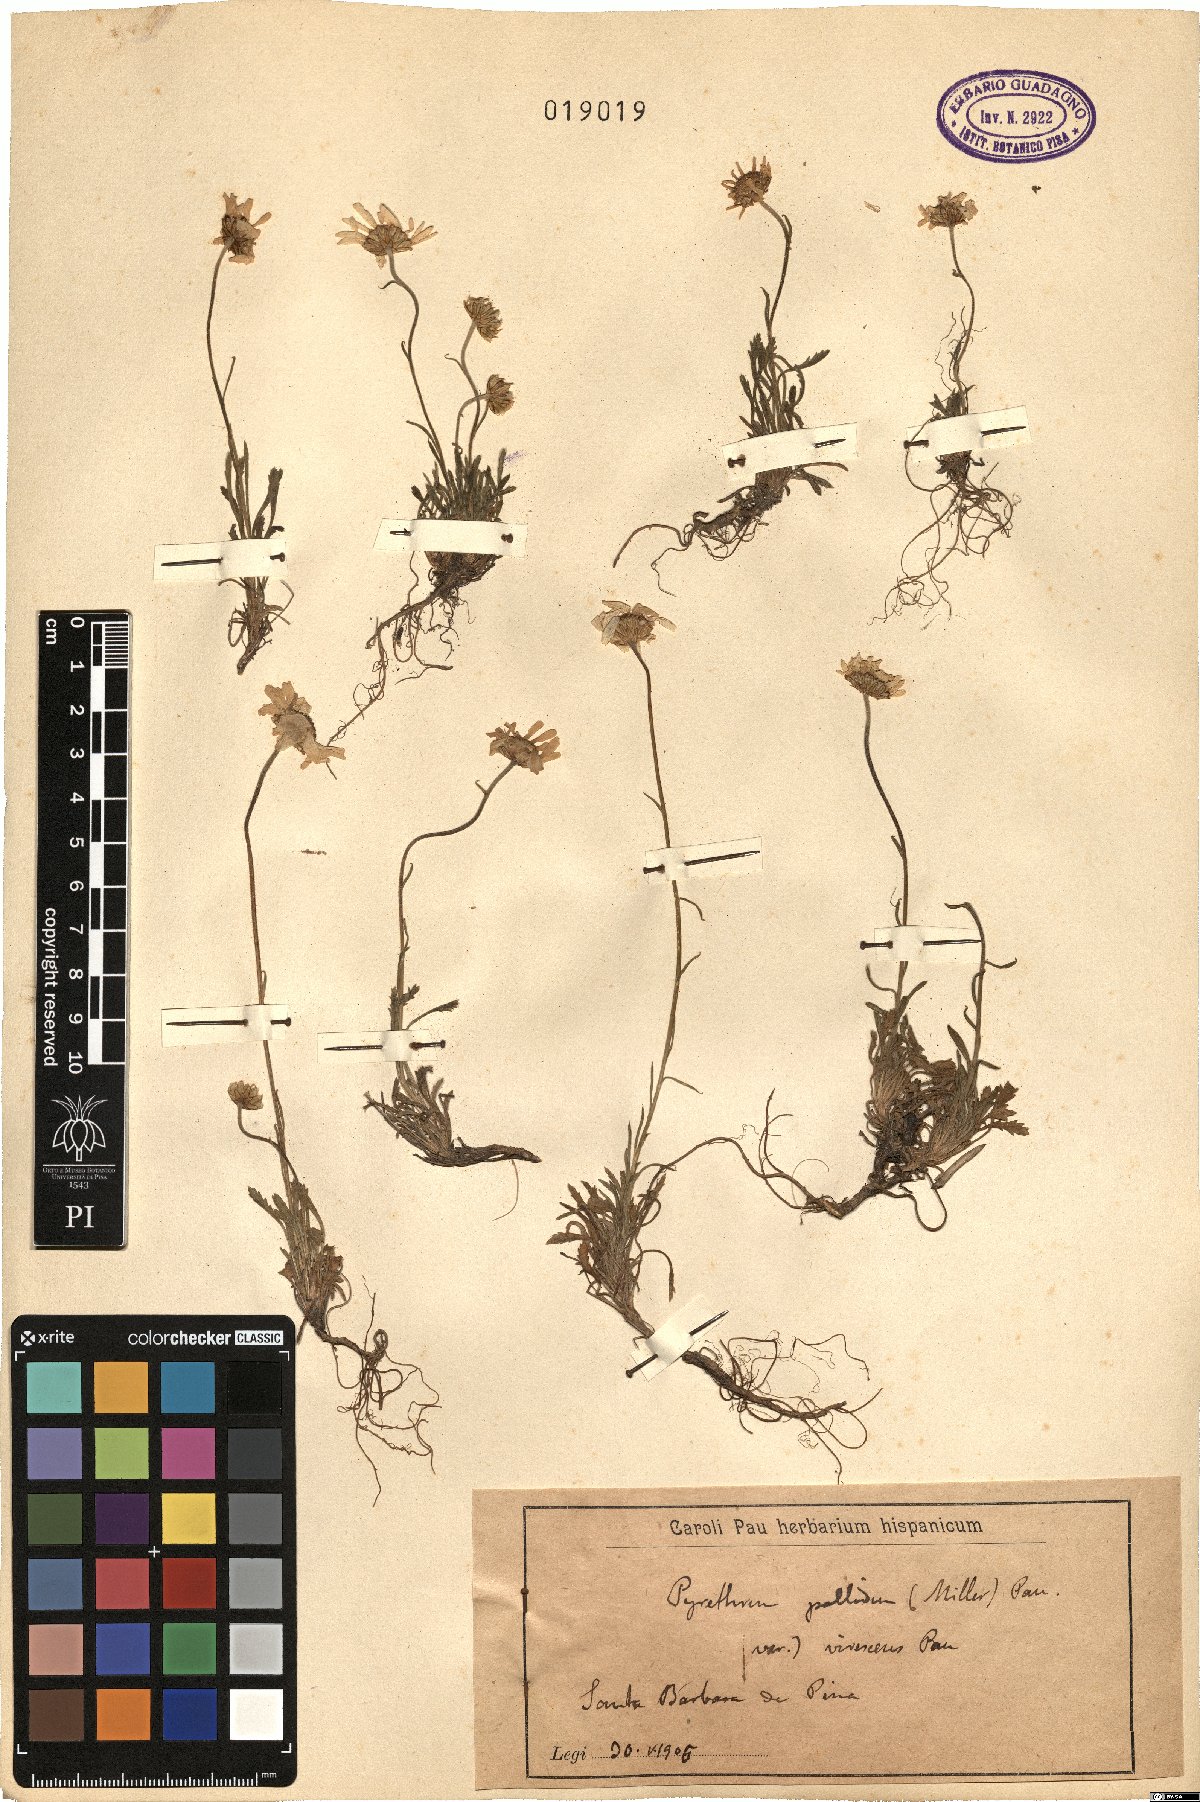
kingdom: Plantae
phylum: Tracheophyta
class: Magnoliopsida
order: Asterales
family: Asteraceae
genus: Leucanthemopsis
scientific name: Leucanthemopsis pallida
